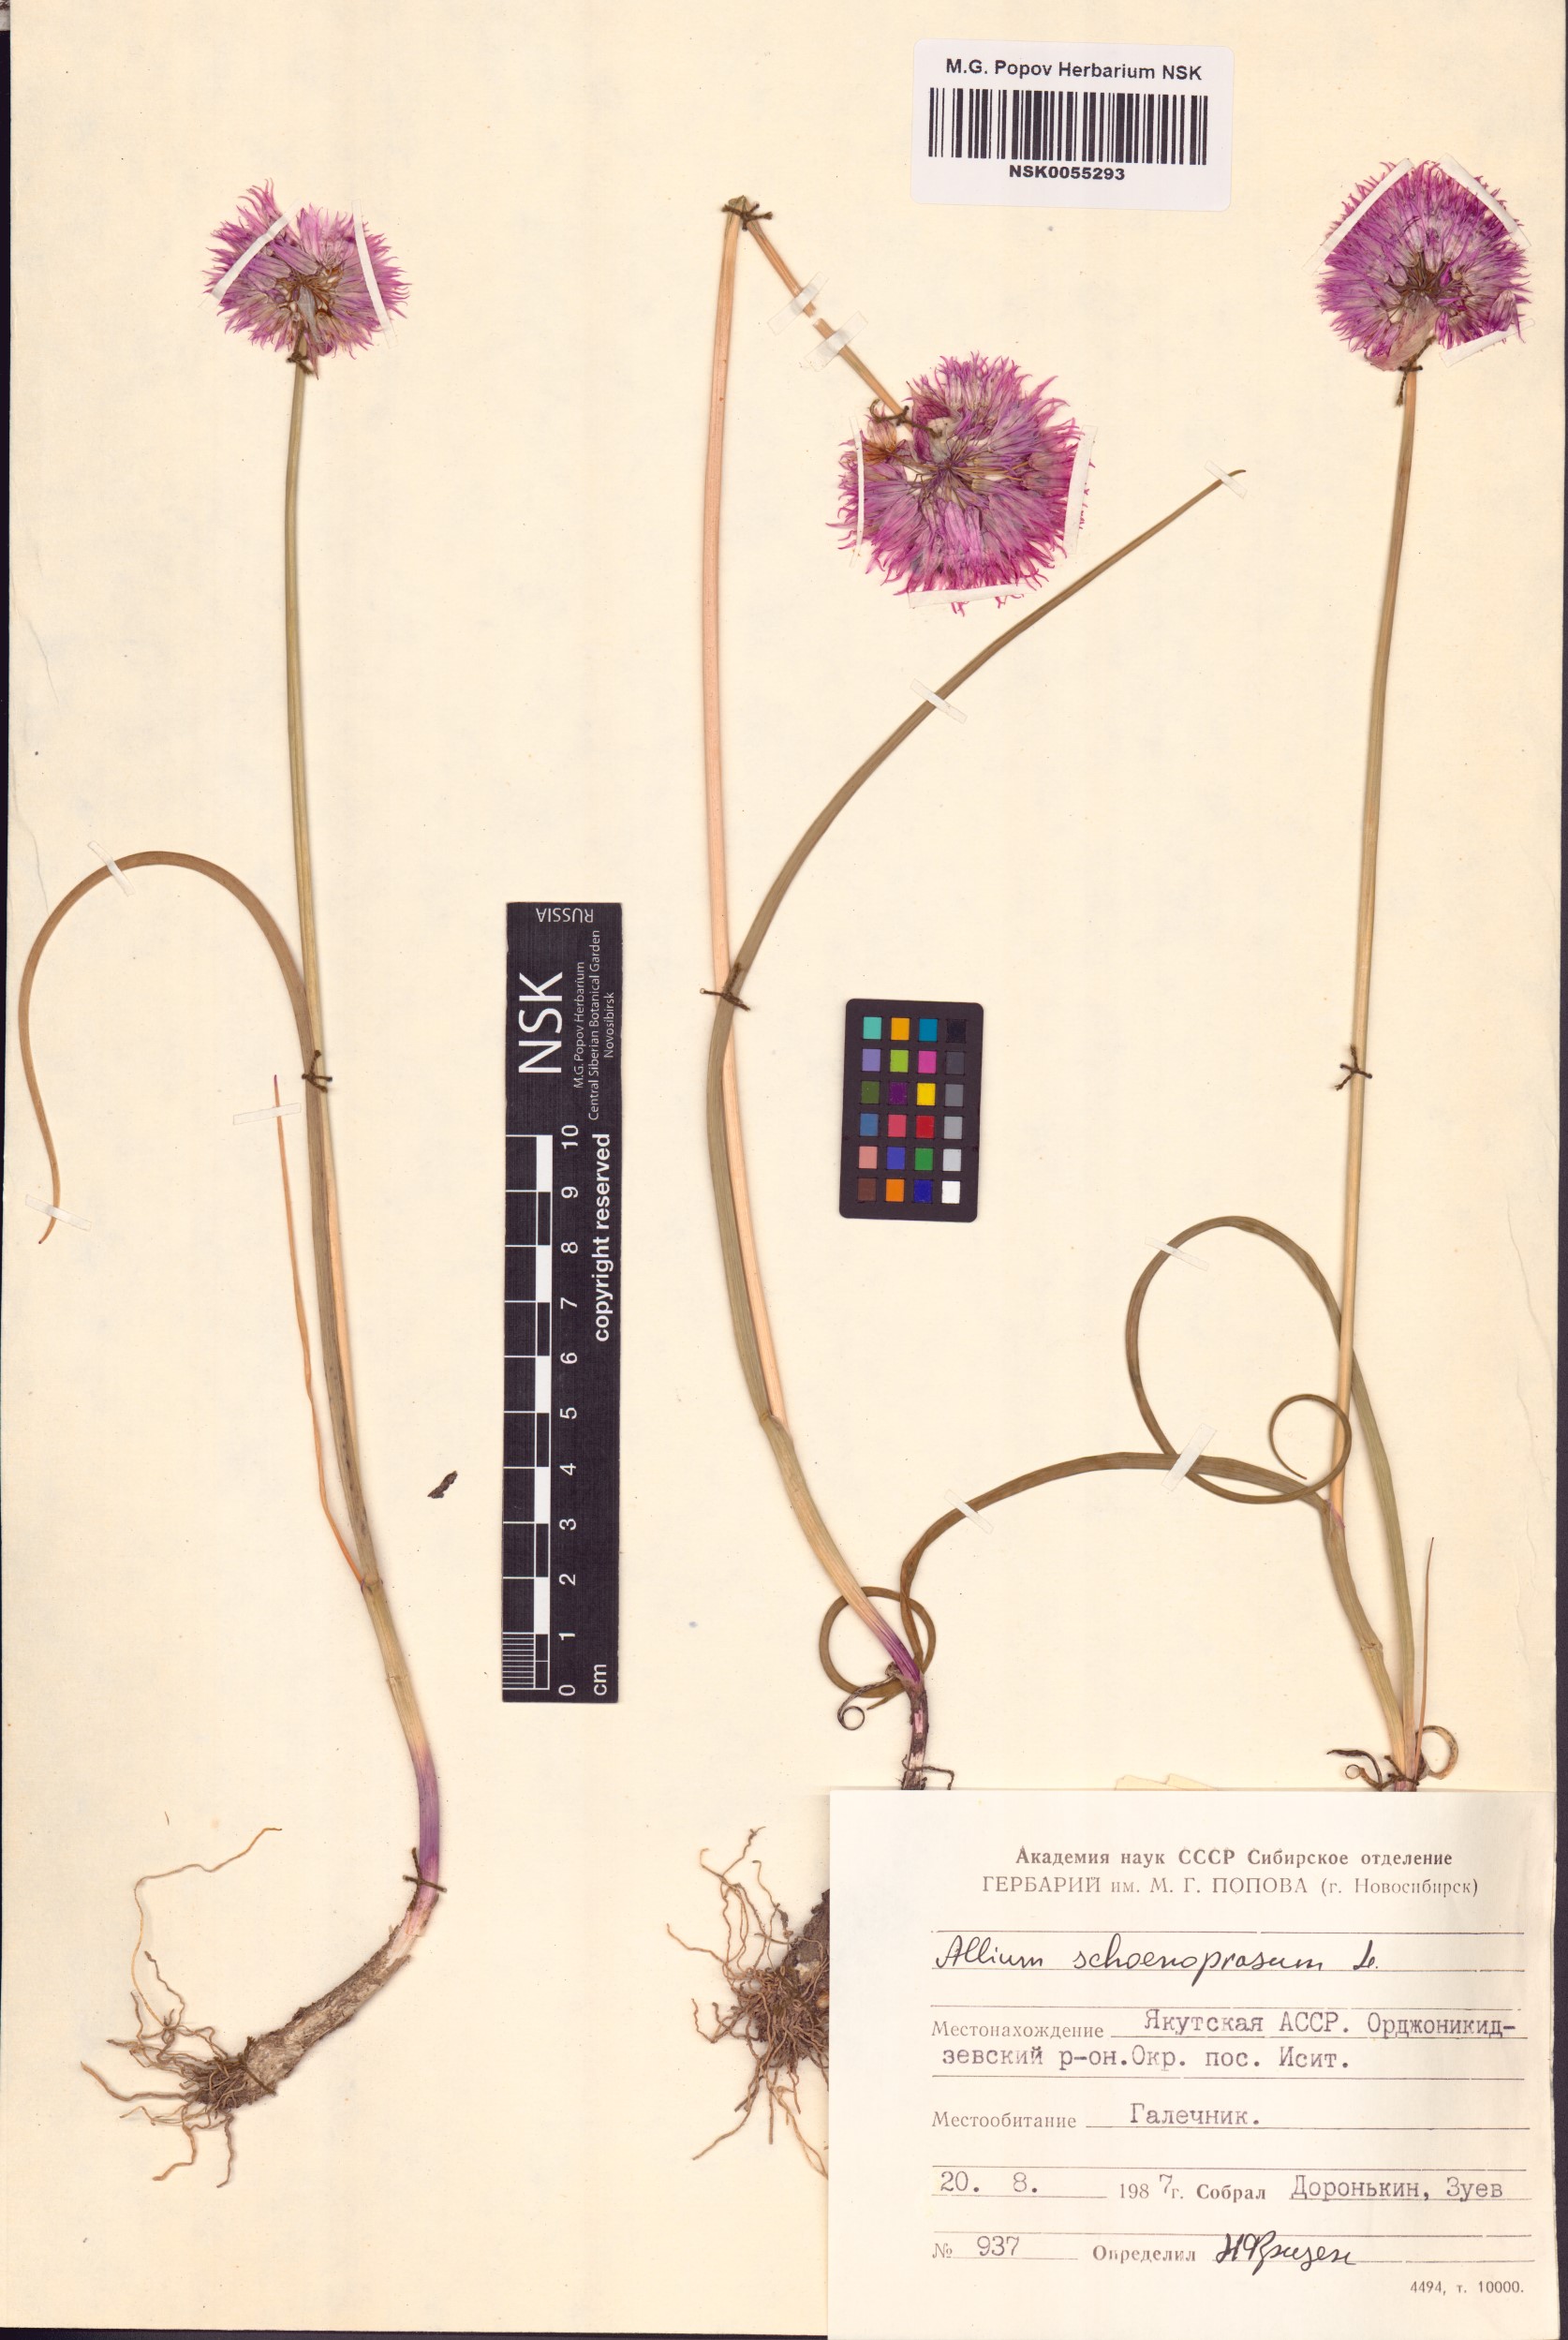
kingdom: Plantae
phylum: Tracheophyta
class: Liliopsida
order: Asparagales
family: Amaryllidaceae
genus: Allium
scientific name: Allium schoenoprasum
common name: Chives
